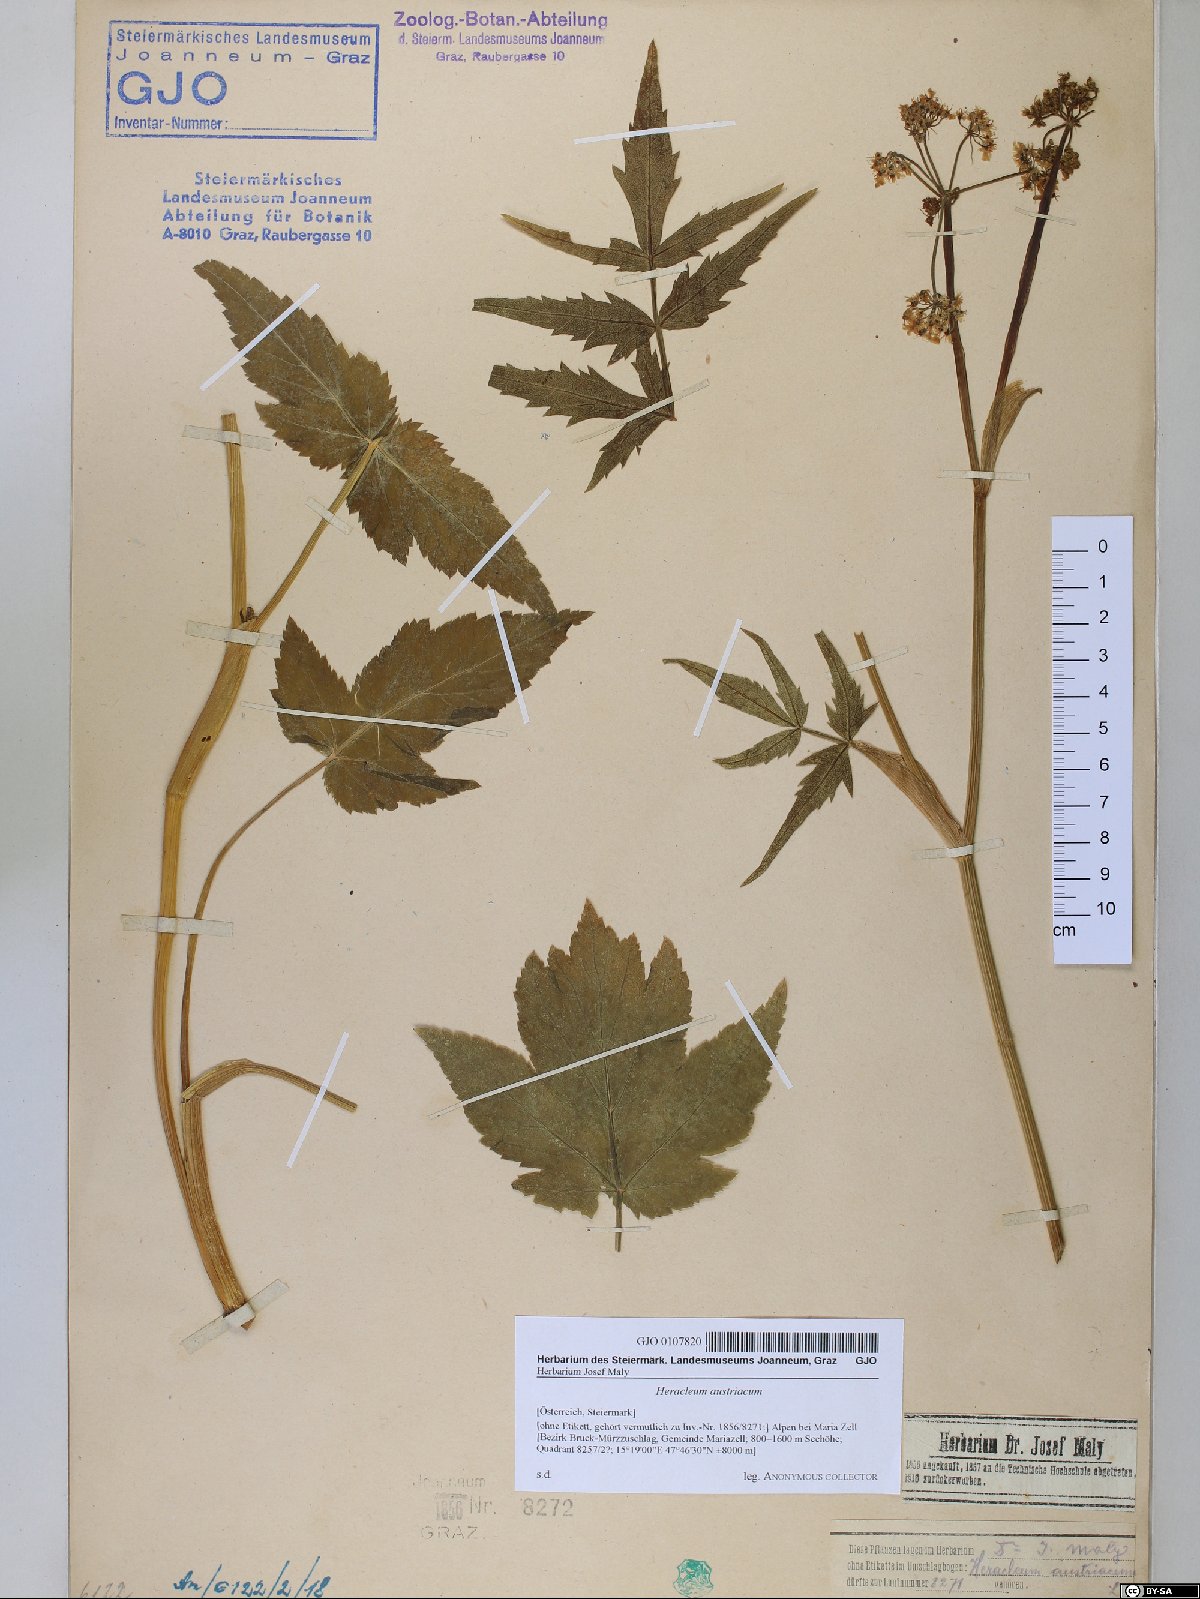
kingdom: Plantae
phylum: Tracheophyta
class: Magnoliopsida
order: Apiales
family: Apiaceae
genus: Heracleum
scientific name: Heracleum austriacum
